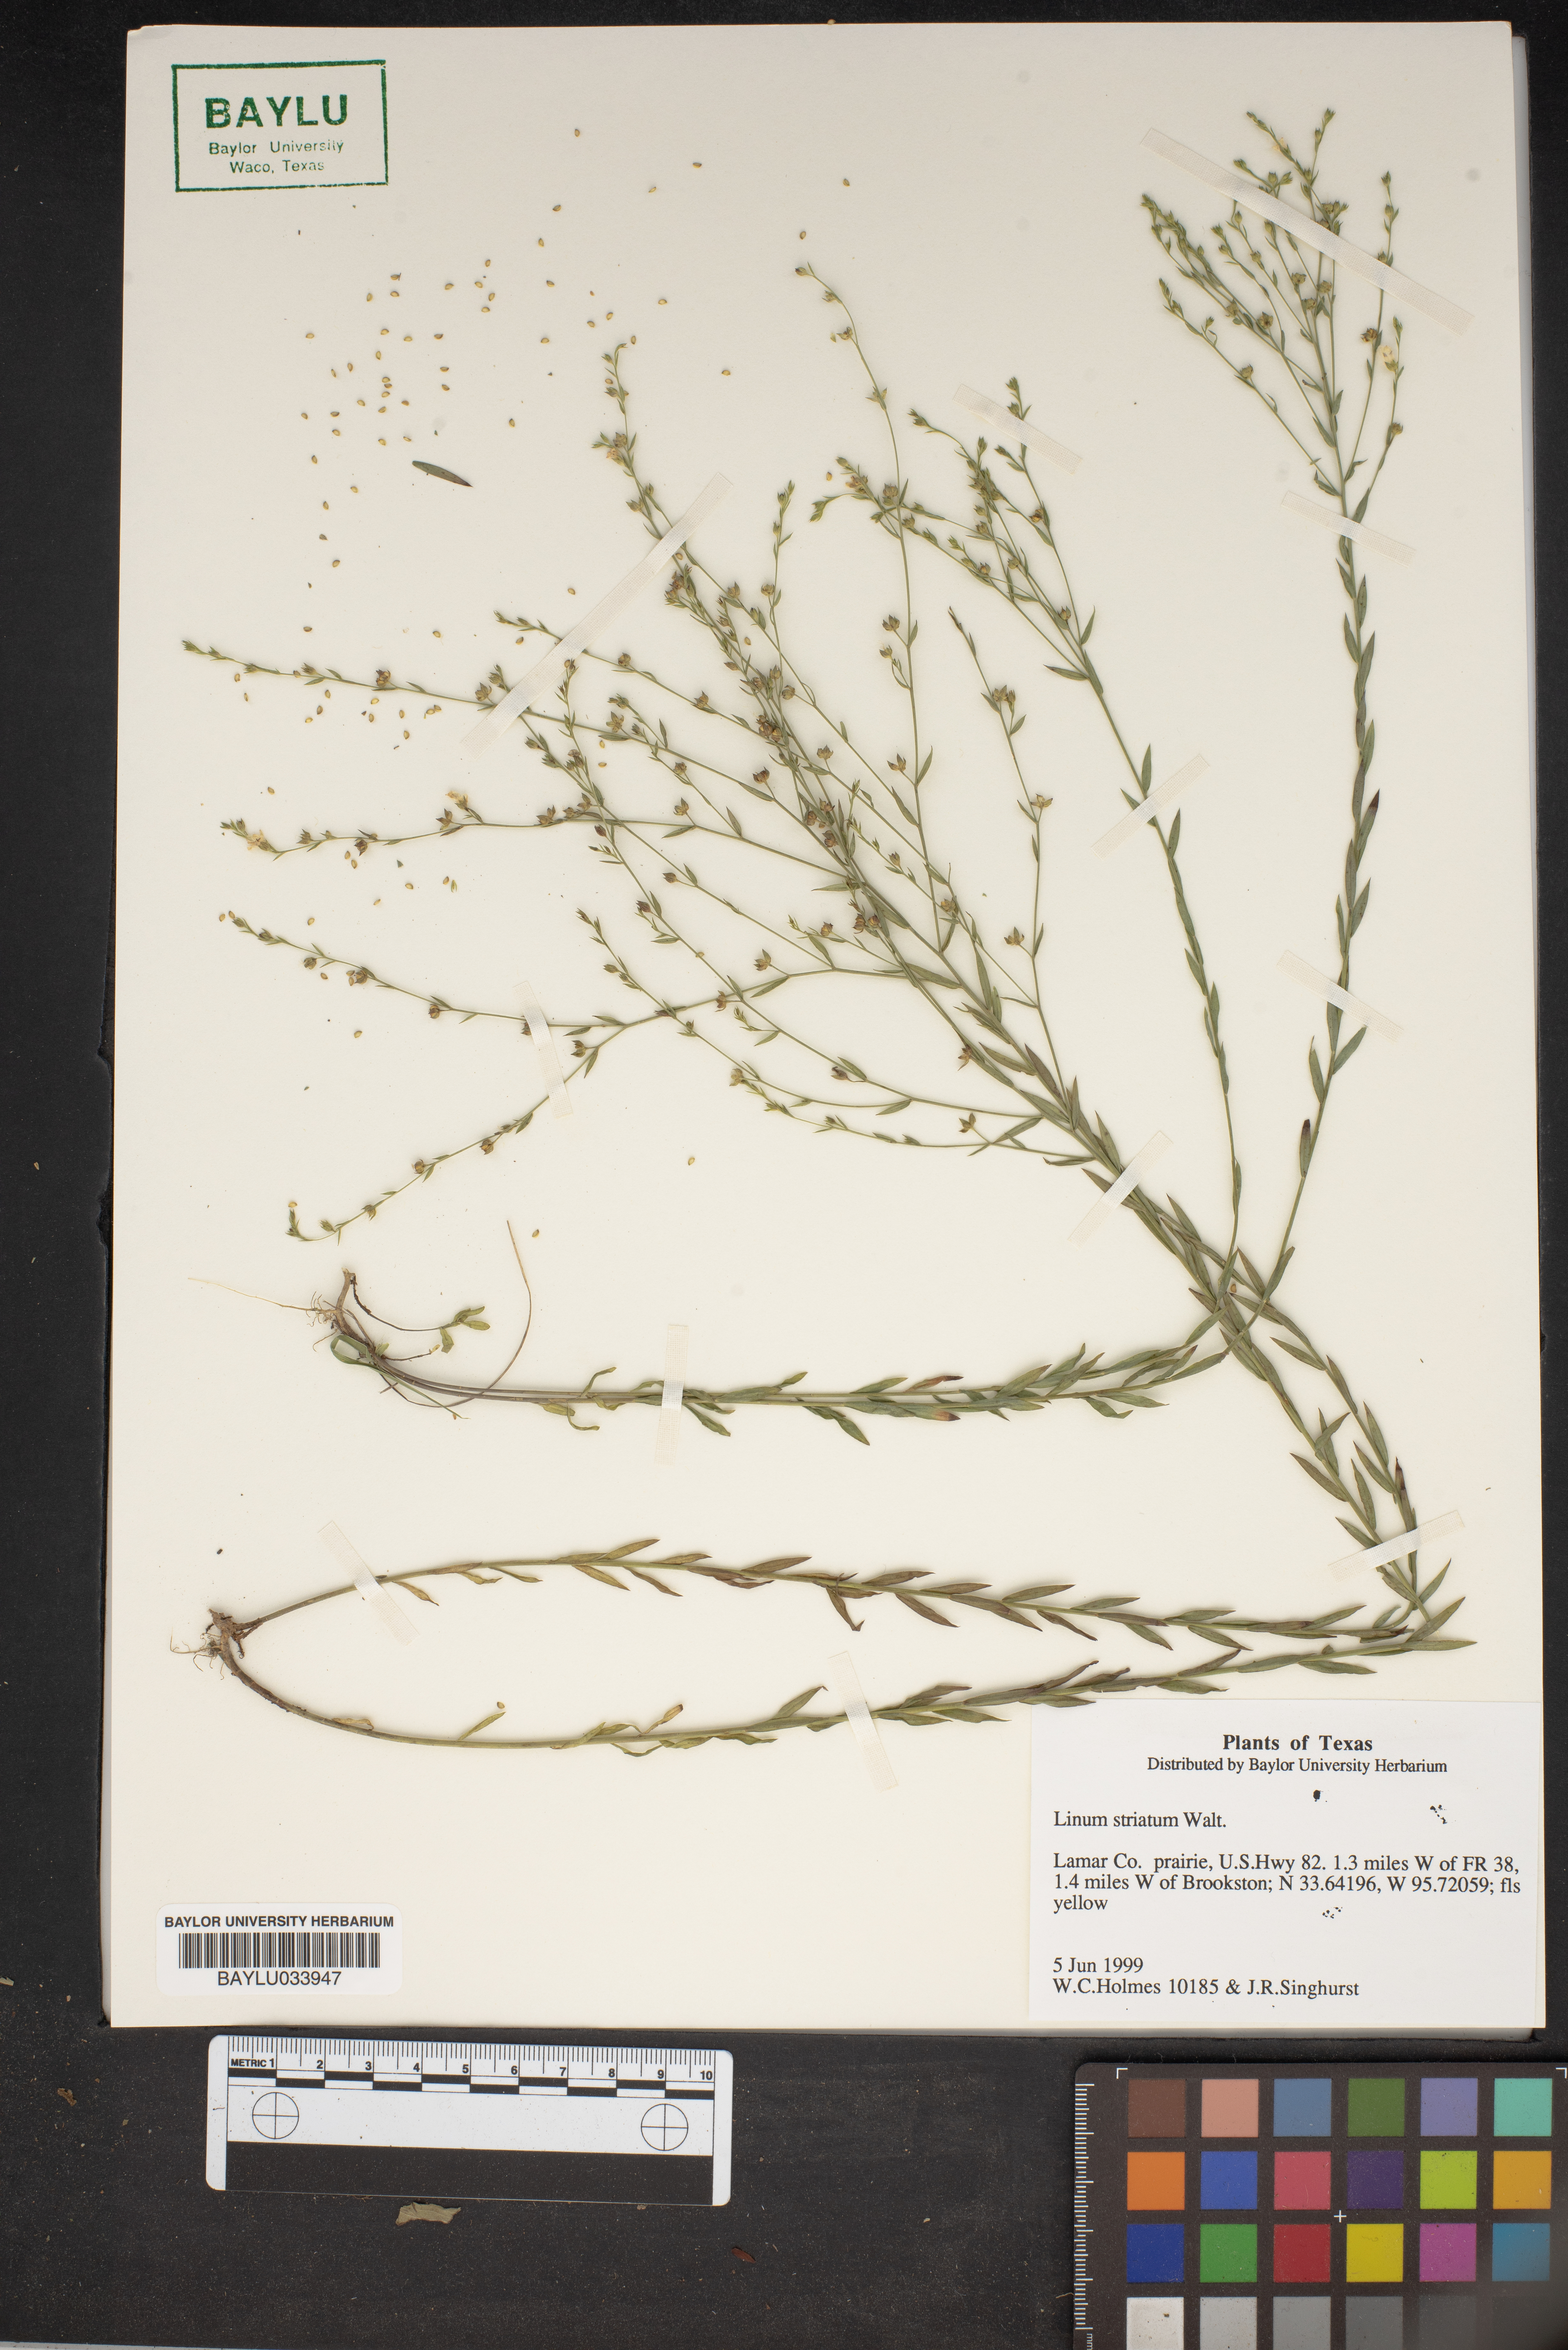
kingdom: Plantae
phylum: Tracheophyta
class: Magnoliopsida
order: Malpighiales
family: Linaceae
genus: Linum
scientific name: Linum striatum
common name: Ridged yellow flax
